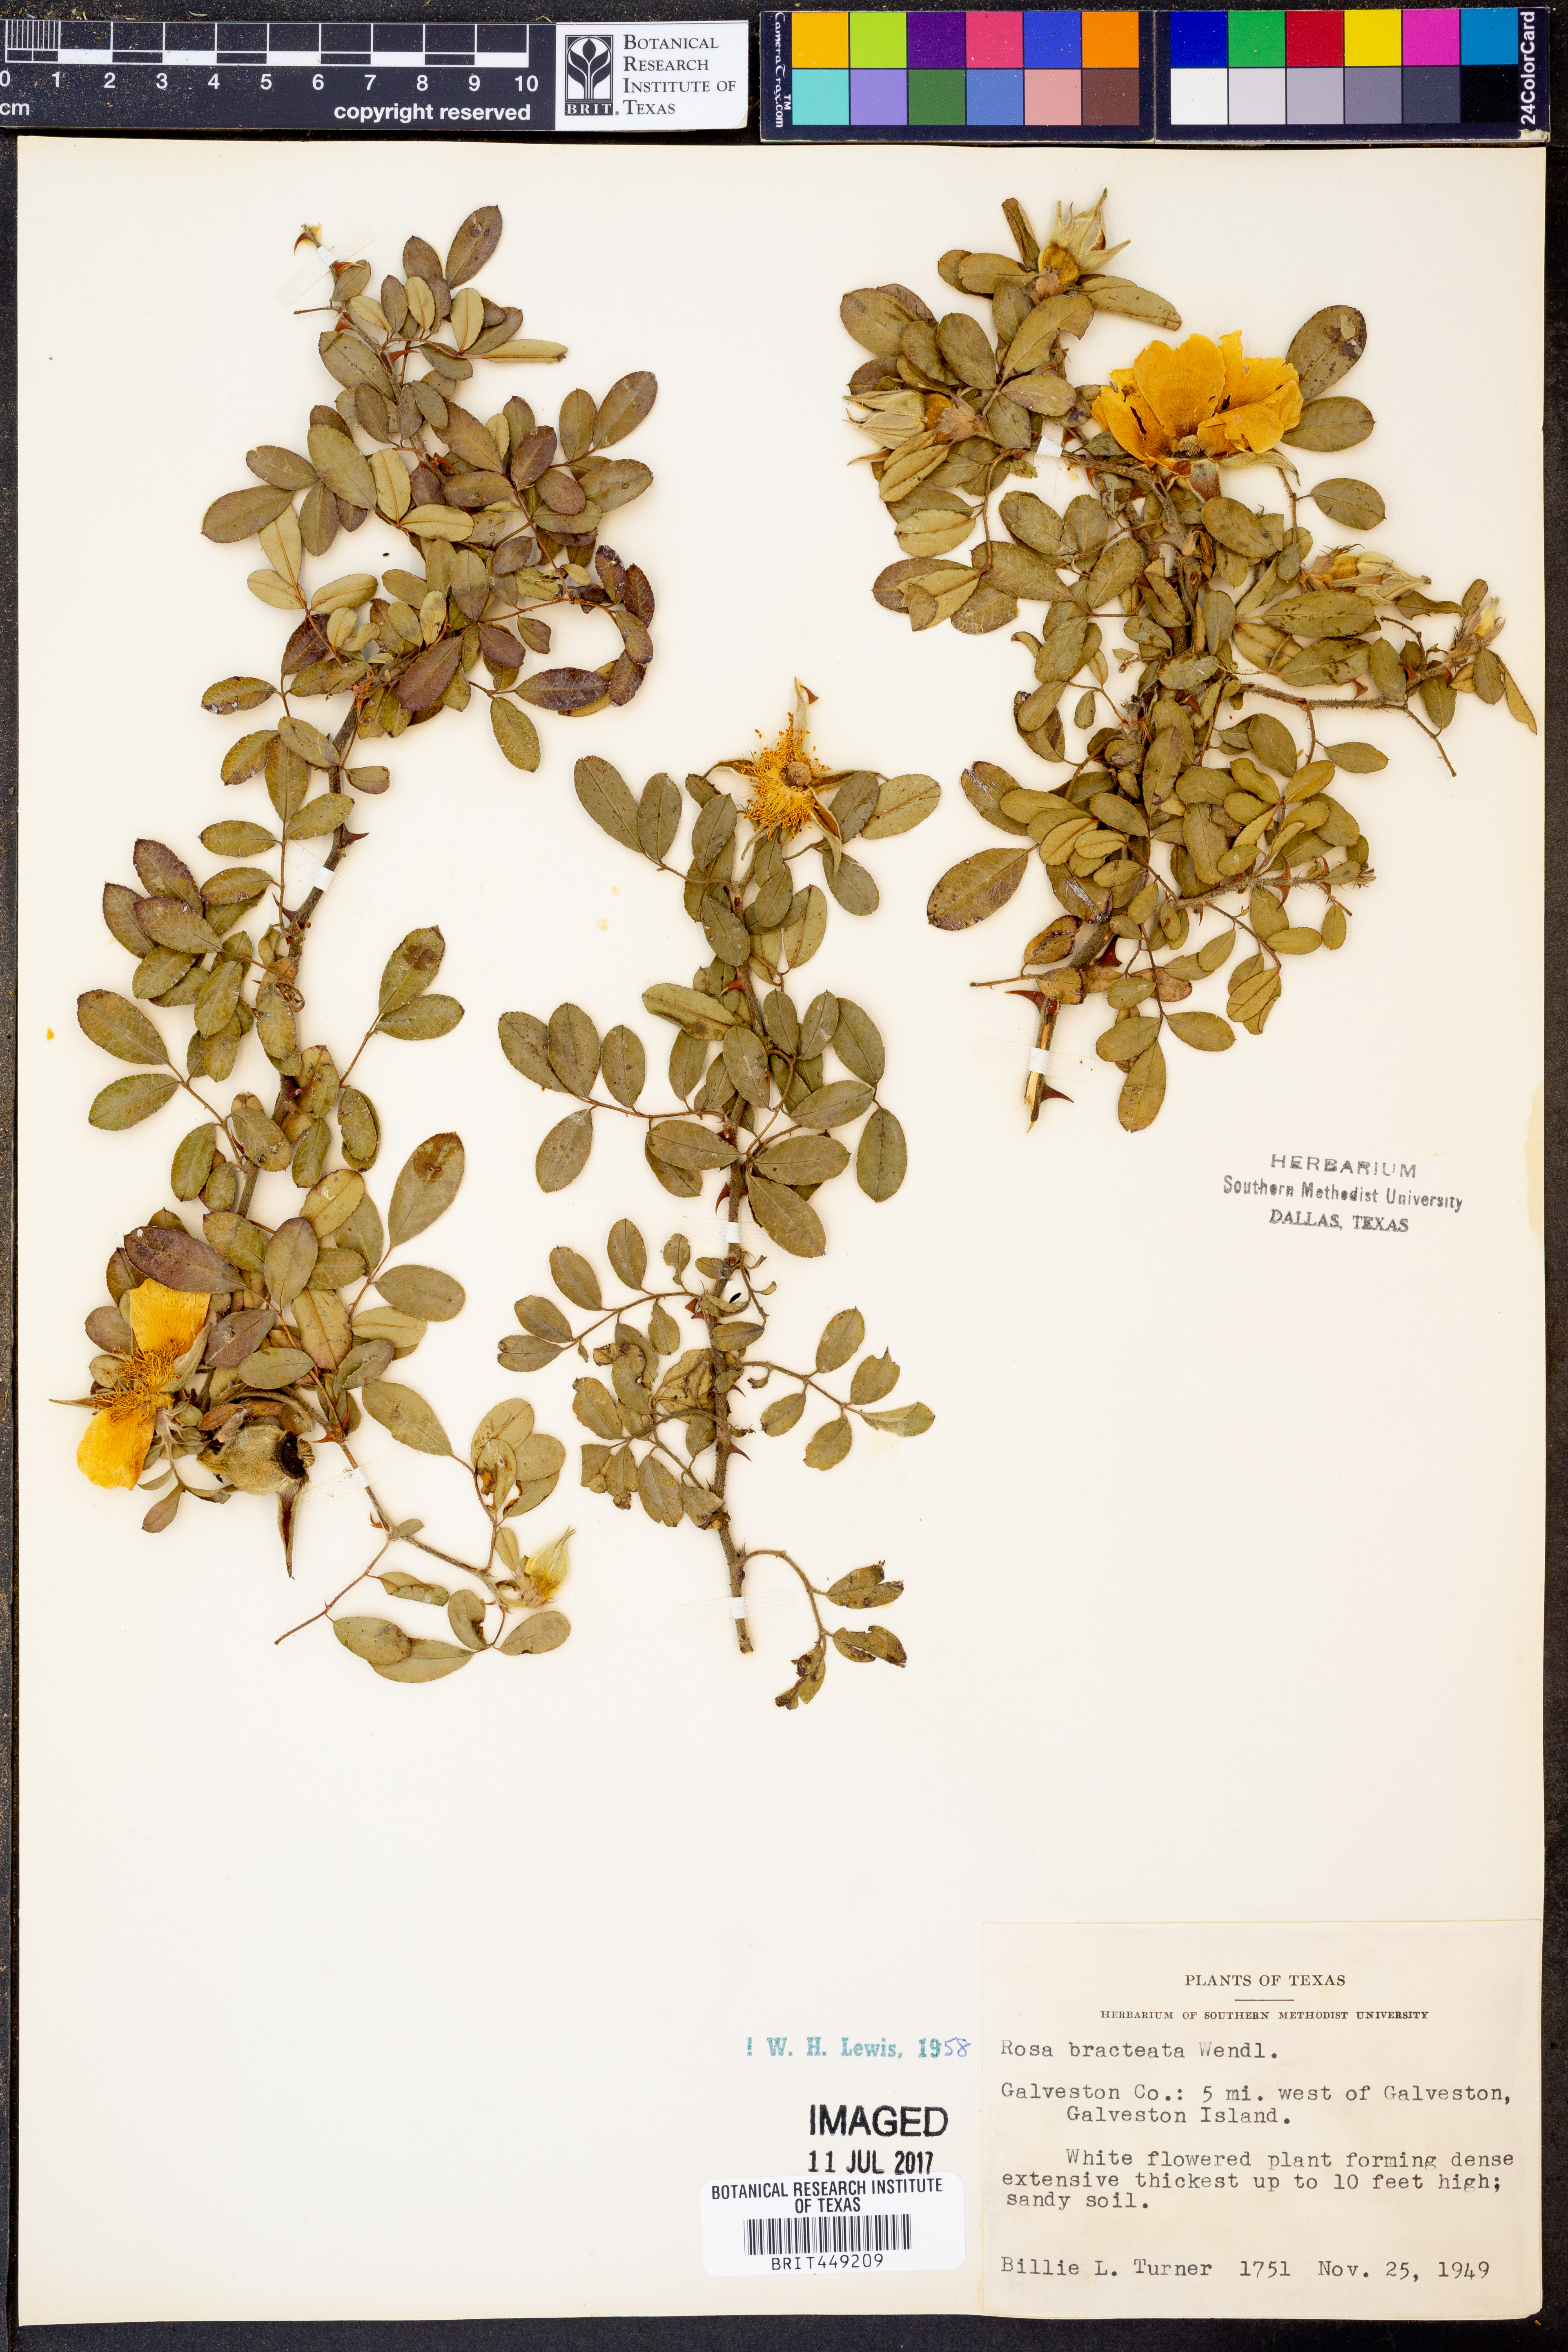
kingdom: Plantae
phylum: Tracheophyta
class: Magnoliopsida
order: Rosales
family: Rosaceae
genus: Rosa
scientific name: Rosa bracteata
